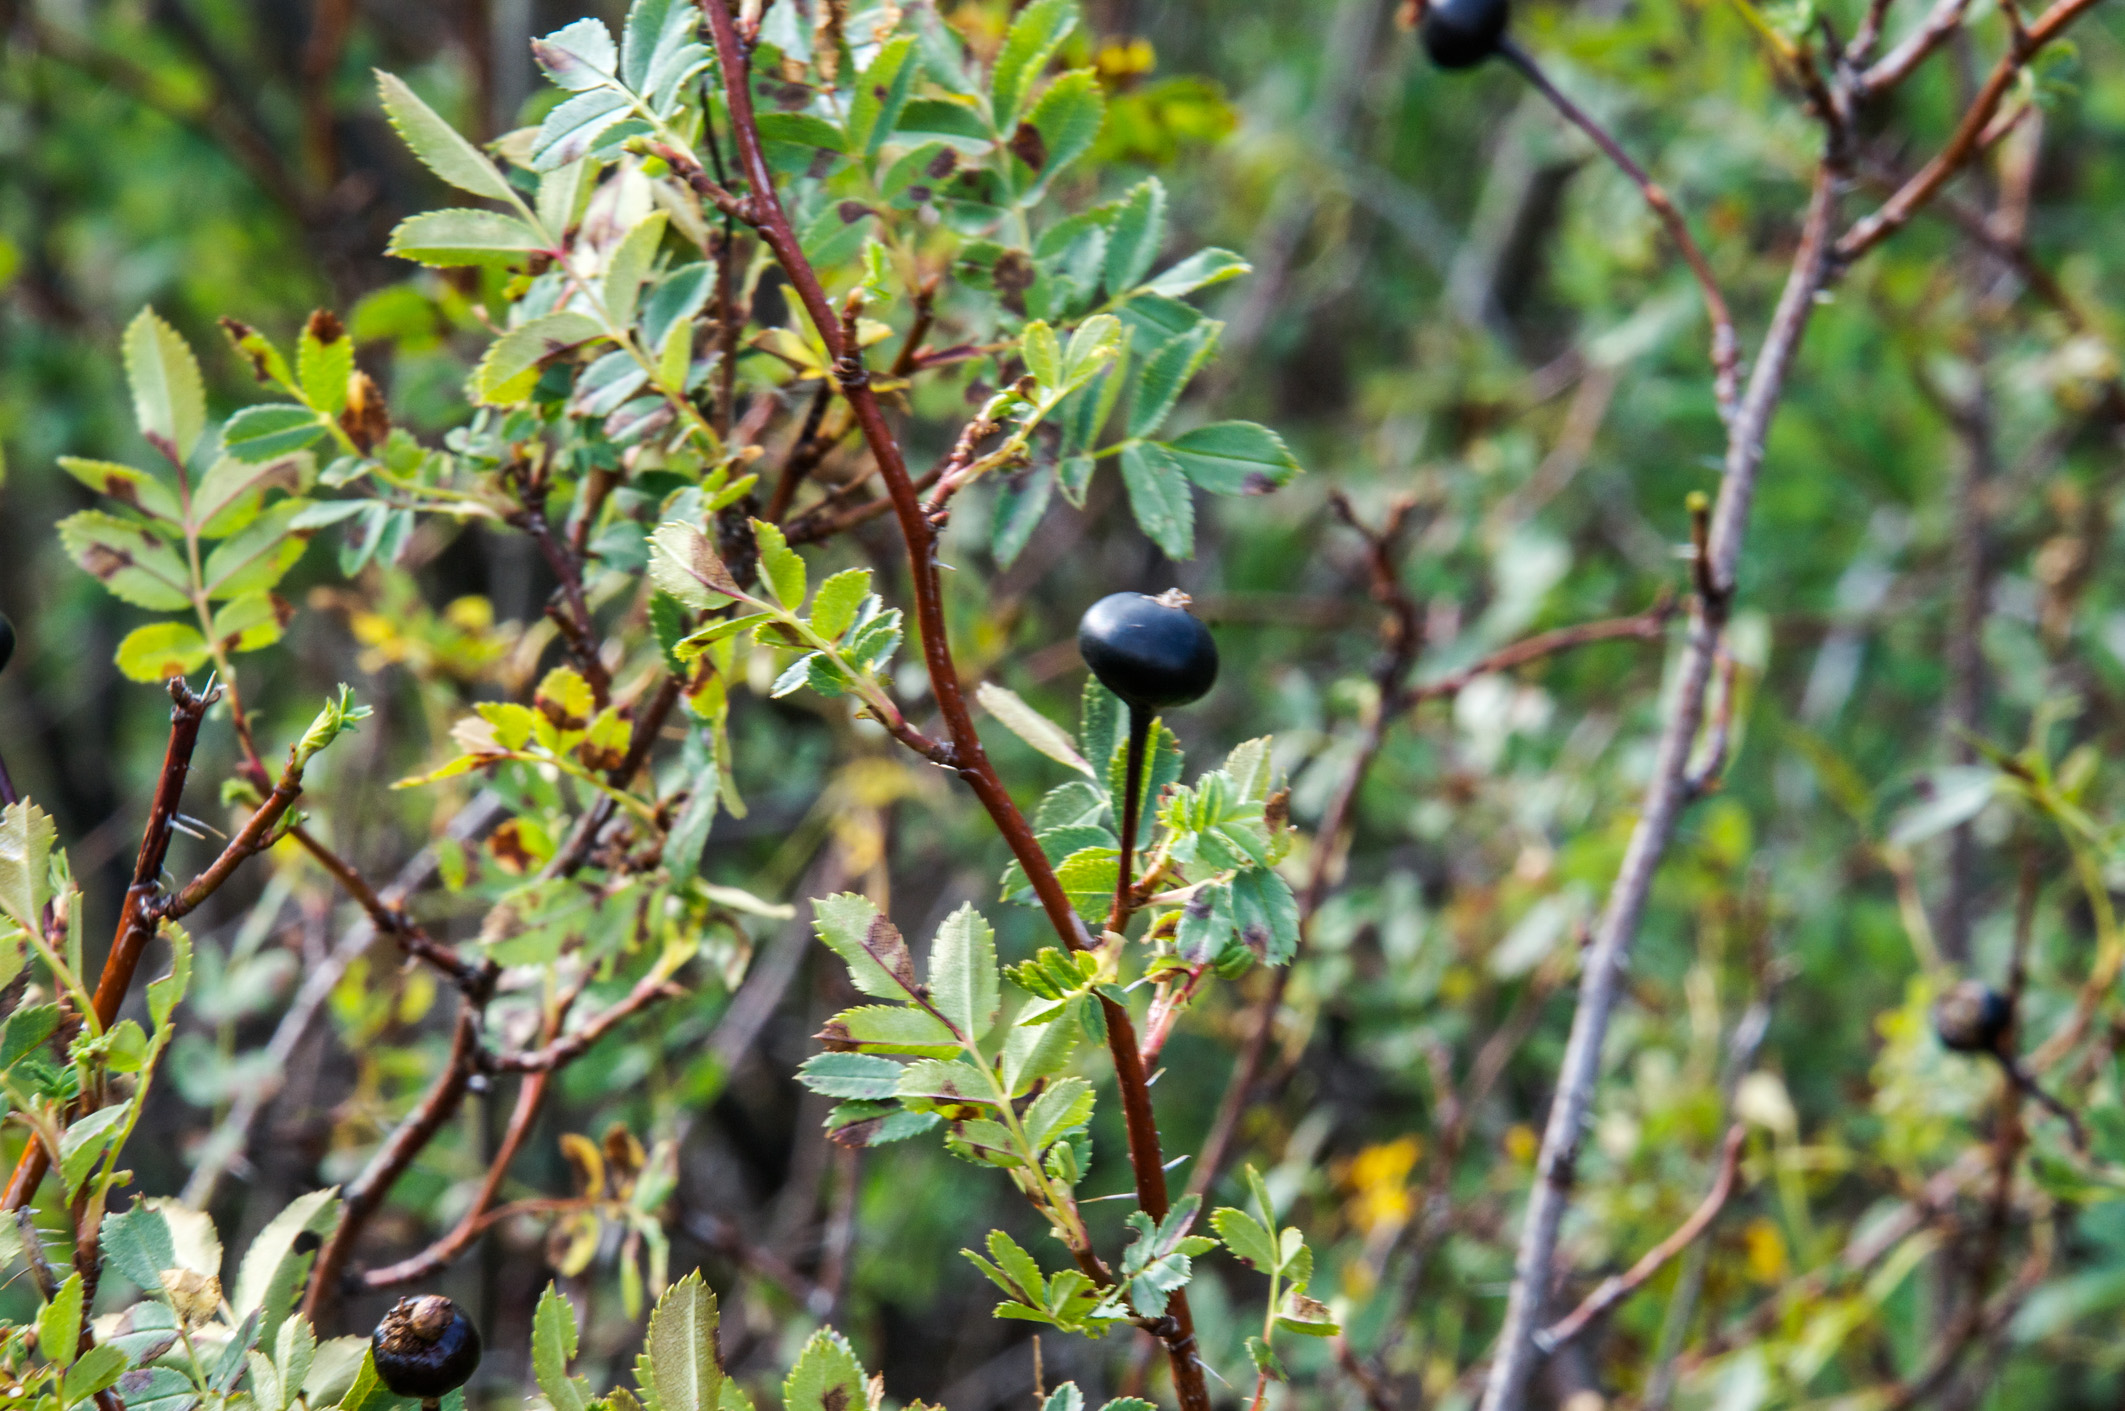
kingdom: Plantae
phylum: Tracheophyta
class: Magnoliopsida
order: Rosales
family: Rosaceae
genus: Rosa
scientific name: Rosa spinosissima
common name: Burnet rose
